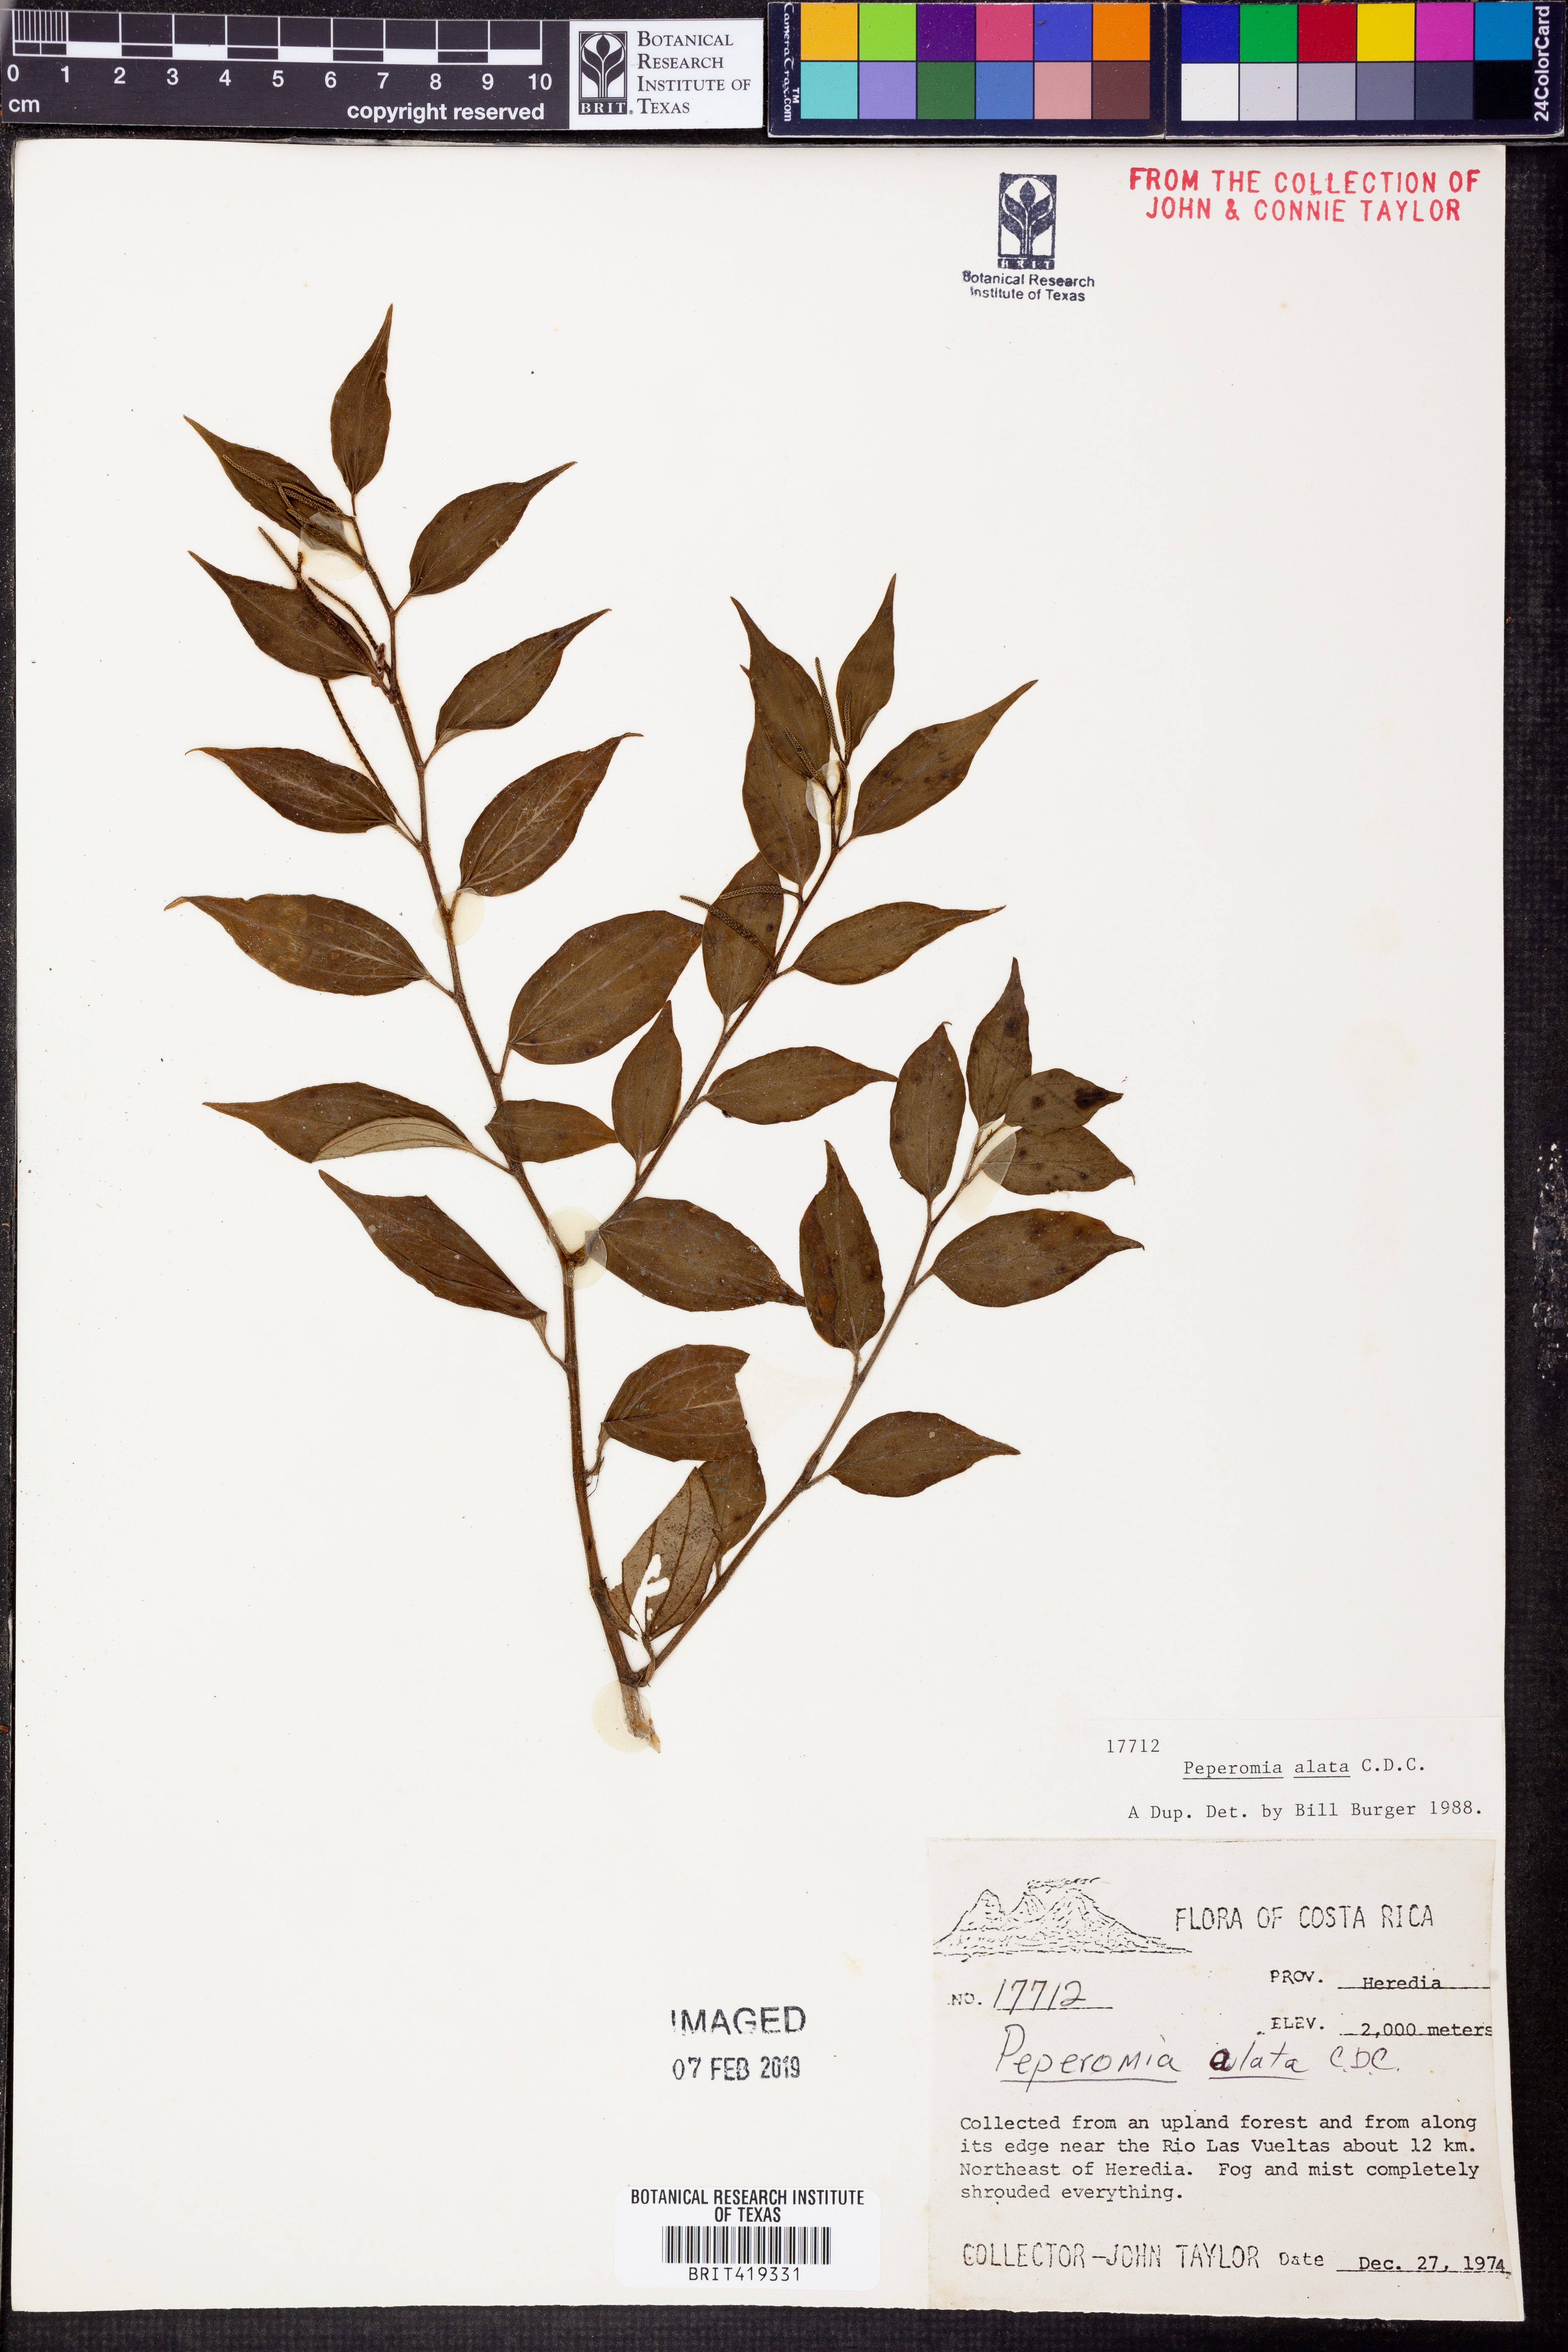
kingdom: Plantae
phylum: Tracheophyta
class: Magnoliopsida
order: Piperales
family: Piperaceae
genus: Peperomia
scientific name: Peperomia alata
